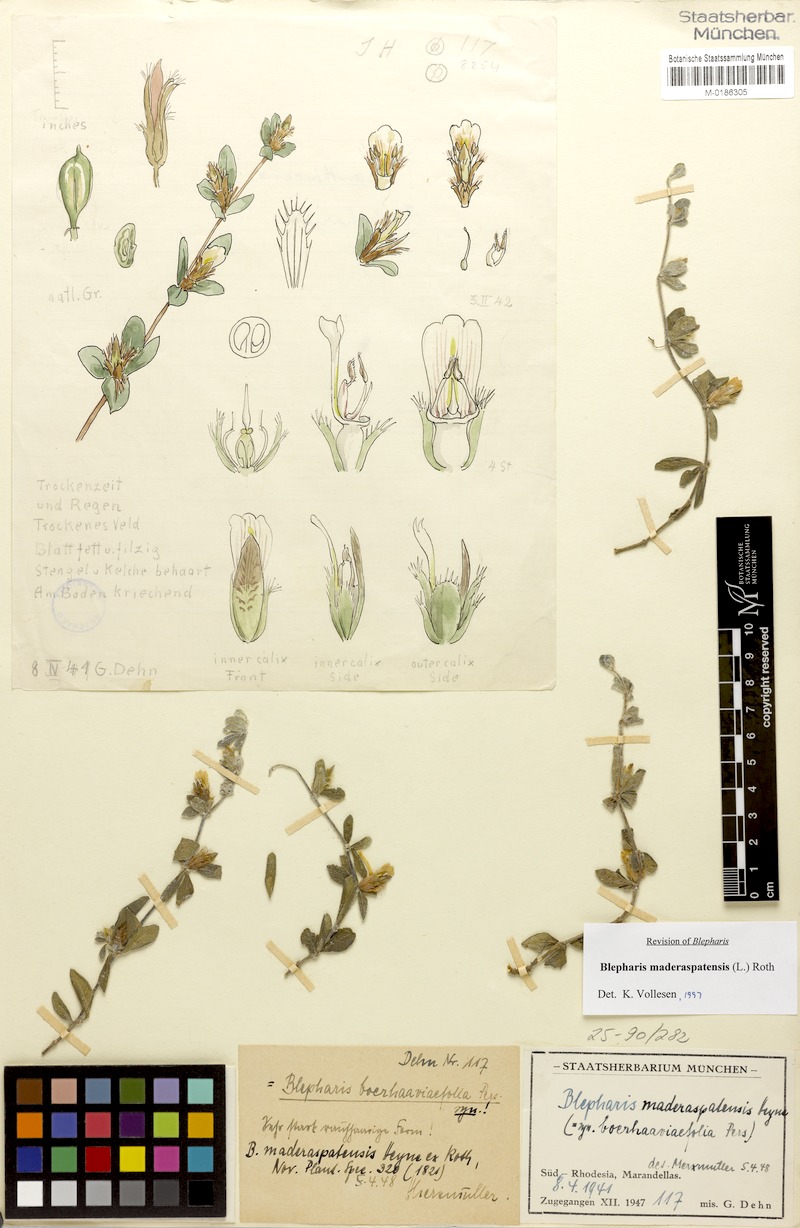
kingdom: Plantae
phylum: Tracheophyta
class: Magnoliopsida
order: Lamiales
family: Acanthaceae
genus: Blepharis
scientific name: Blepharis maderaspatensis
